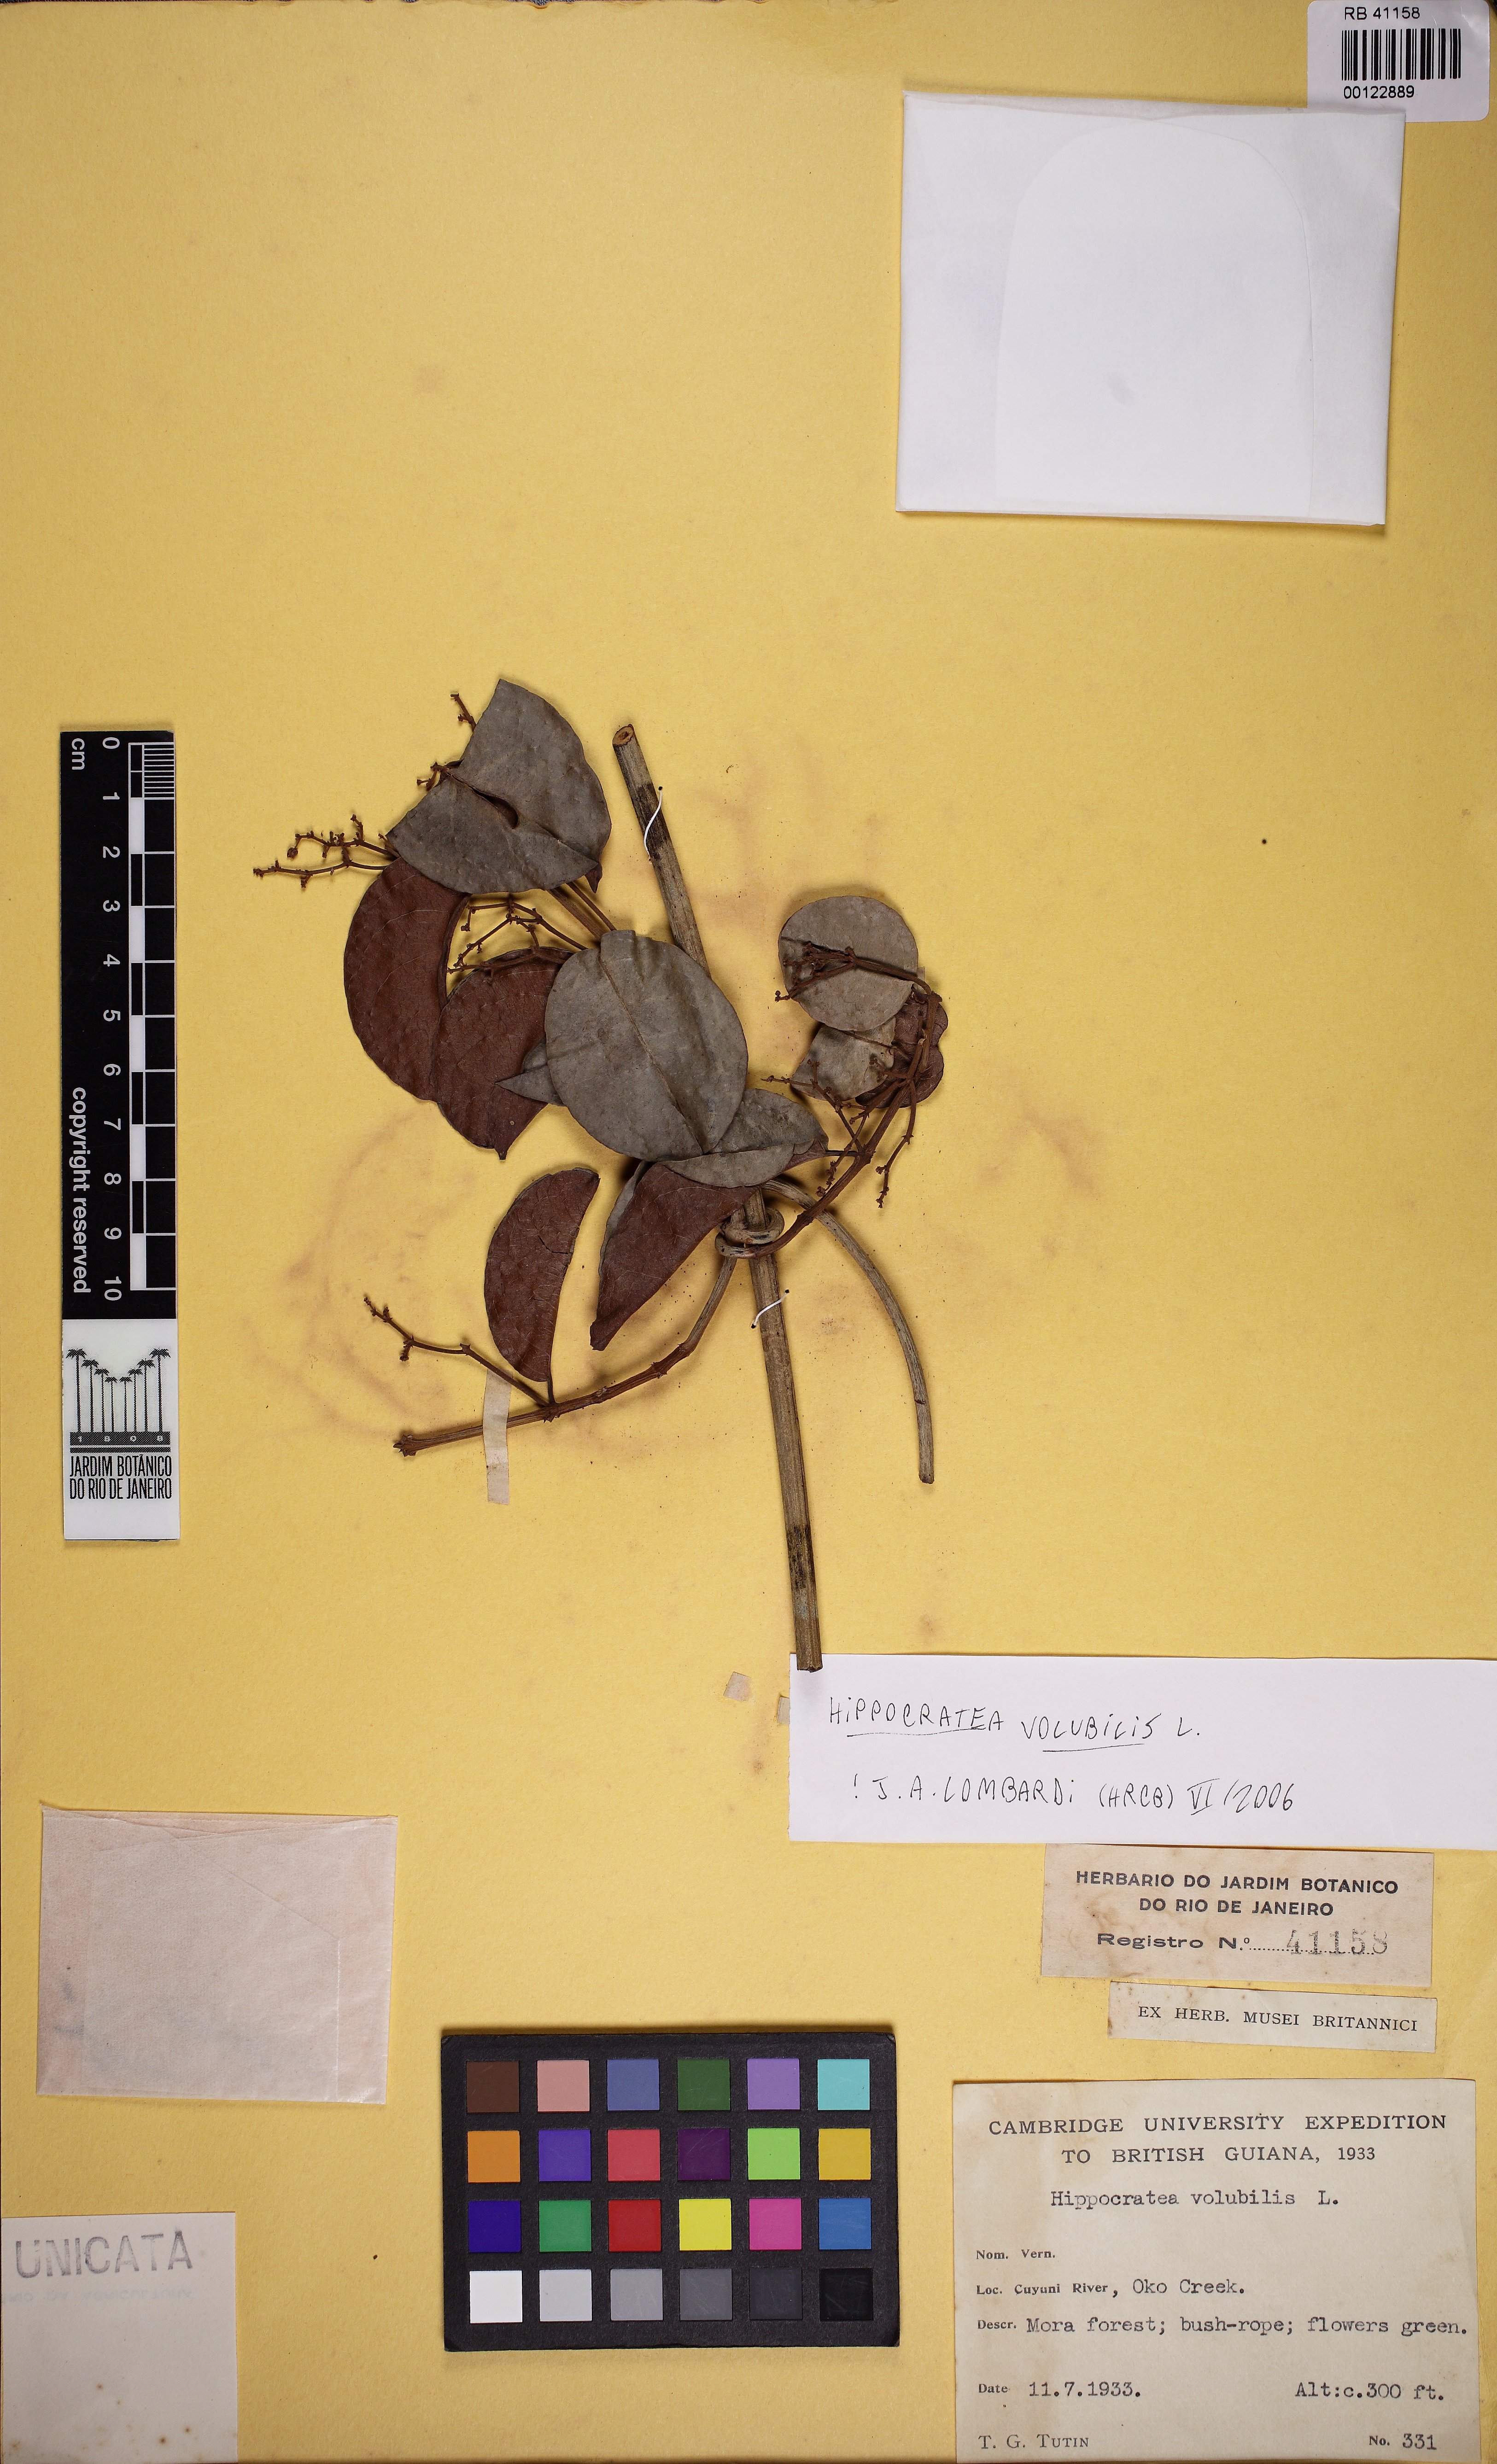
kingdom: Plantae
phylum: Tracheophyta
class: Magnoliopsida
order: Celastrales
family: Celastraceae
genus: Hippocratea
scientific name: Hippocratea volubilis
